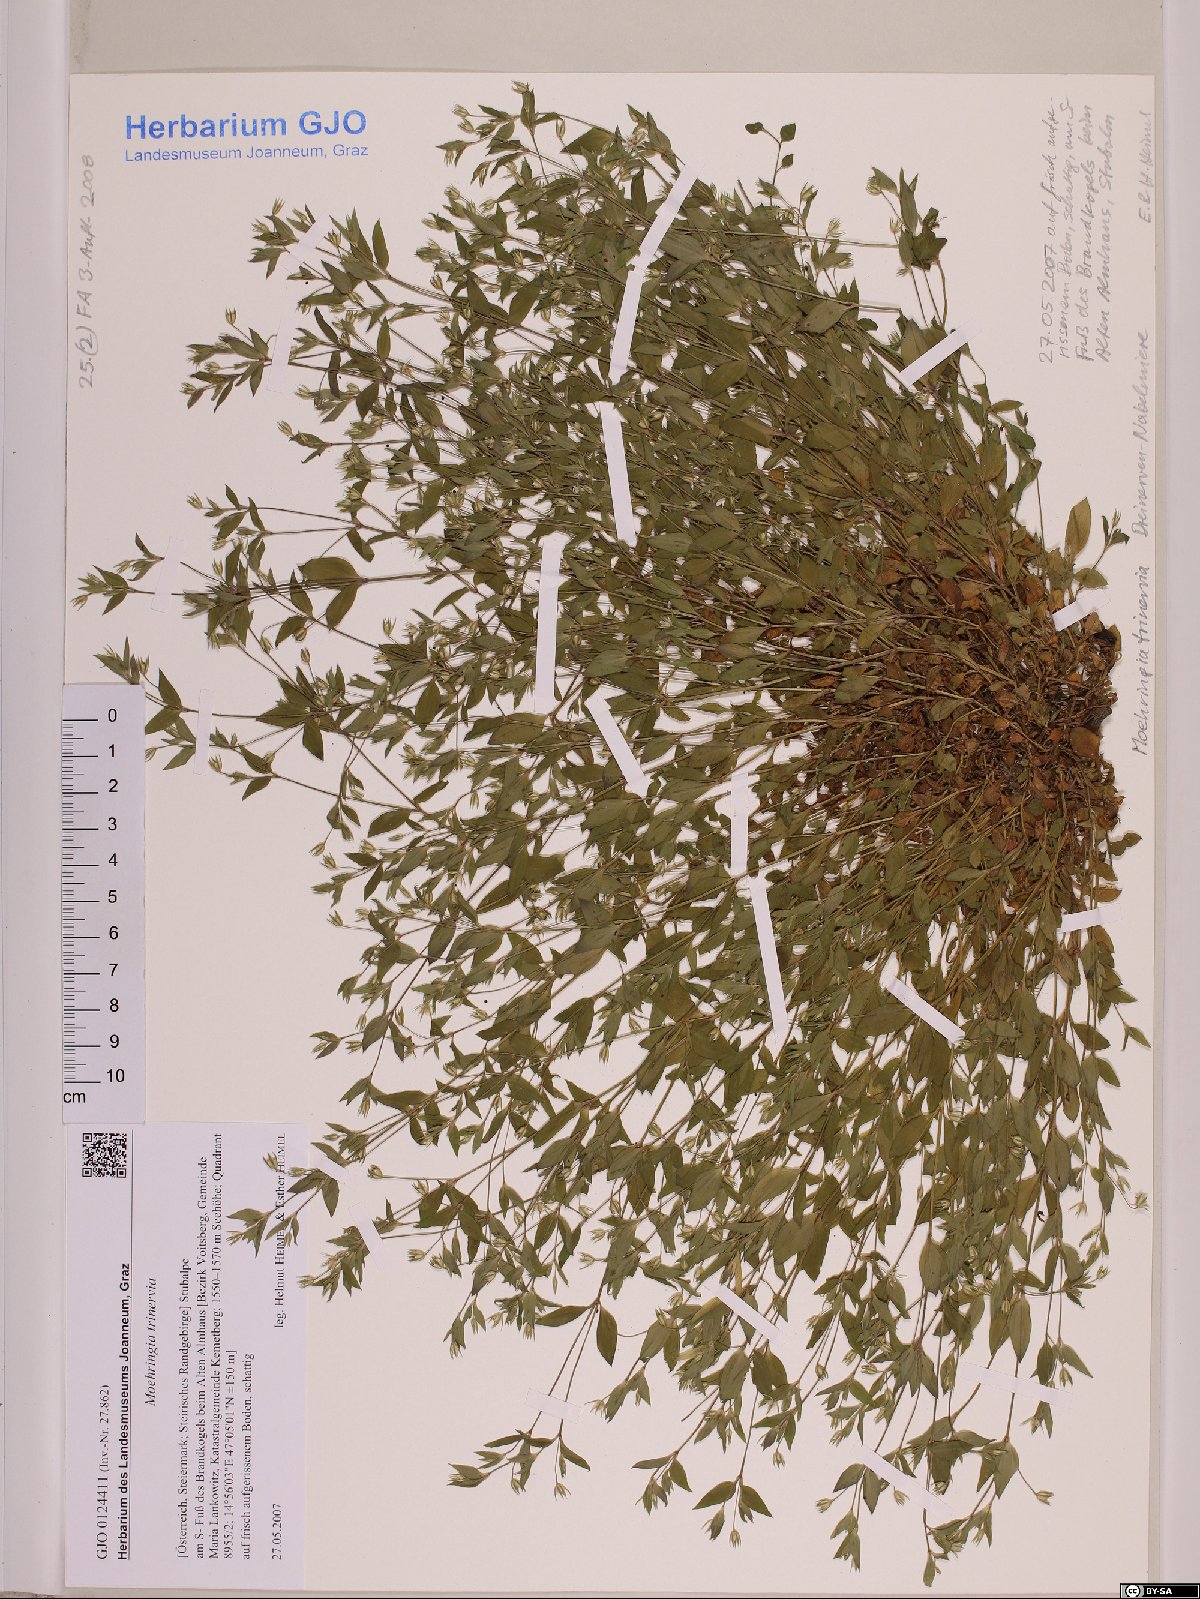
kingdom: Plantae
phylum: Tracheophyta
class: Magnoliopsida
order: Caryophyllales
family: Caryophyllaceae
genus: Moehringia
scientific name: Moehringia trinervia
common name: Three-nerved sandwort
